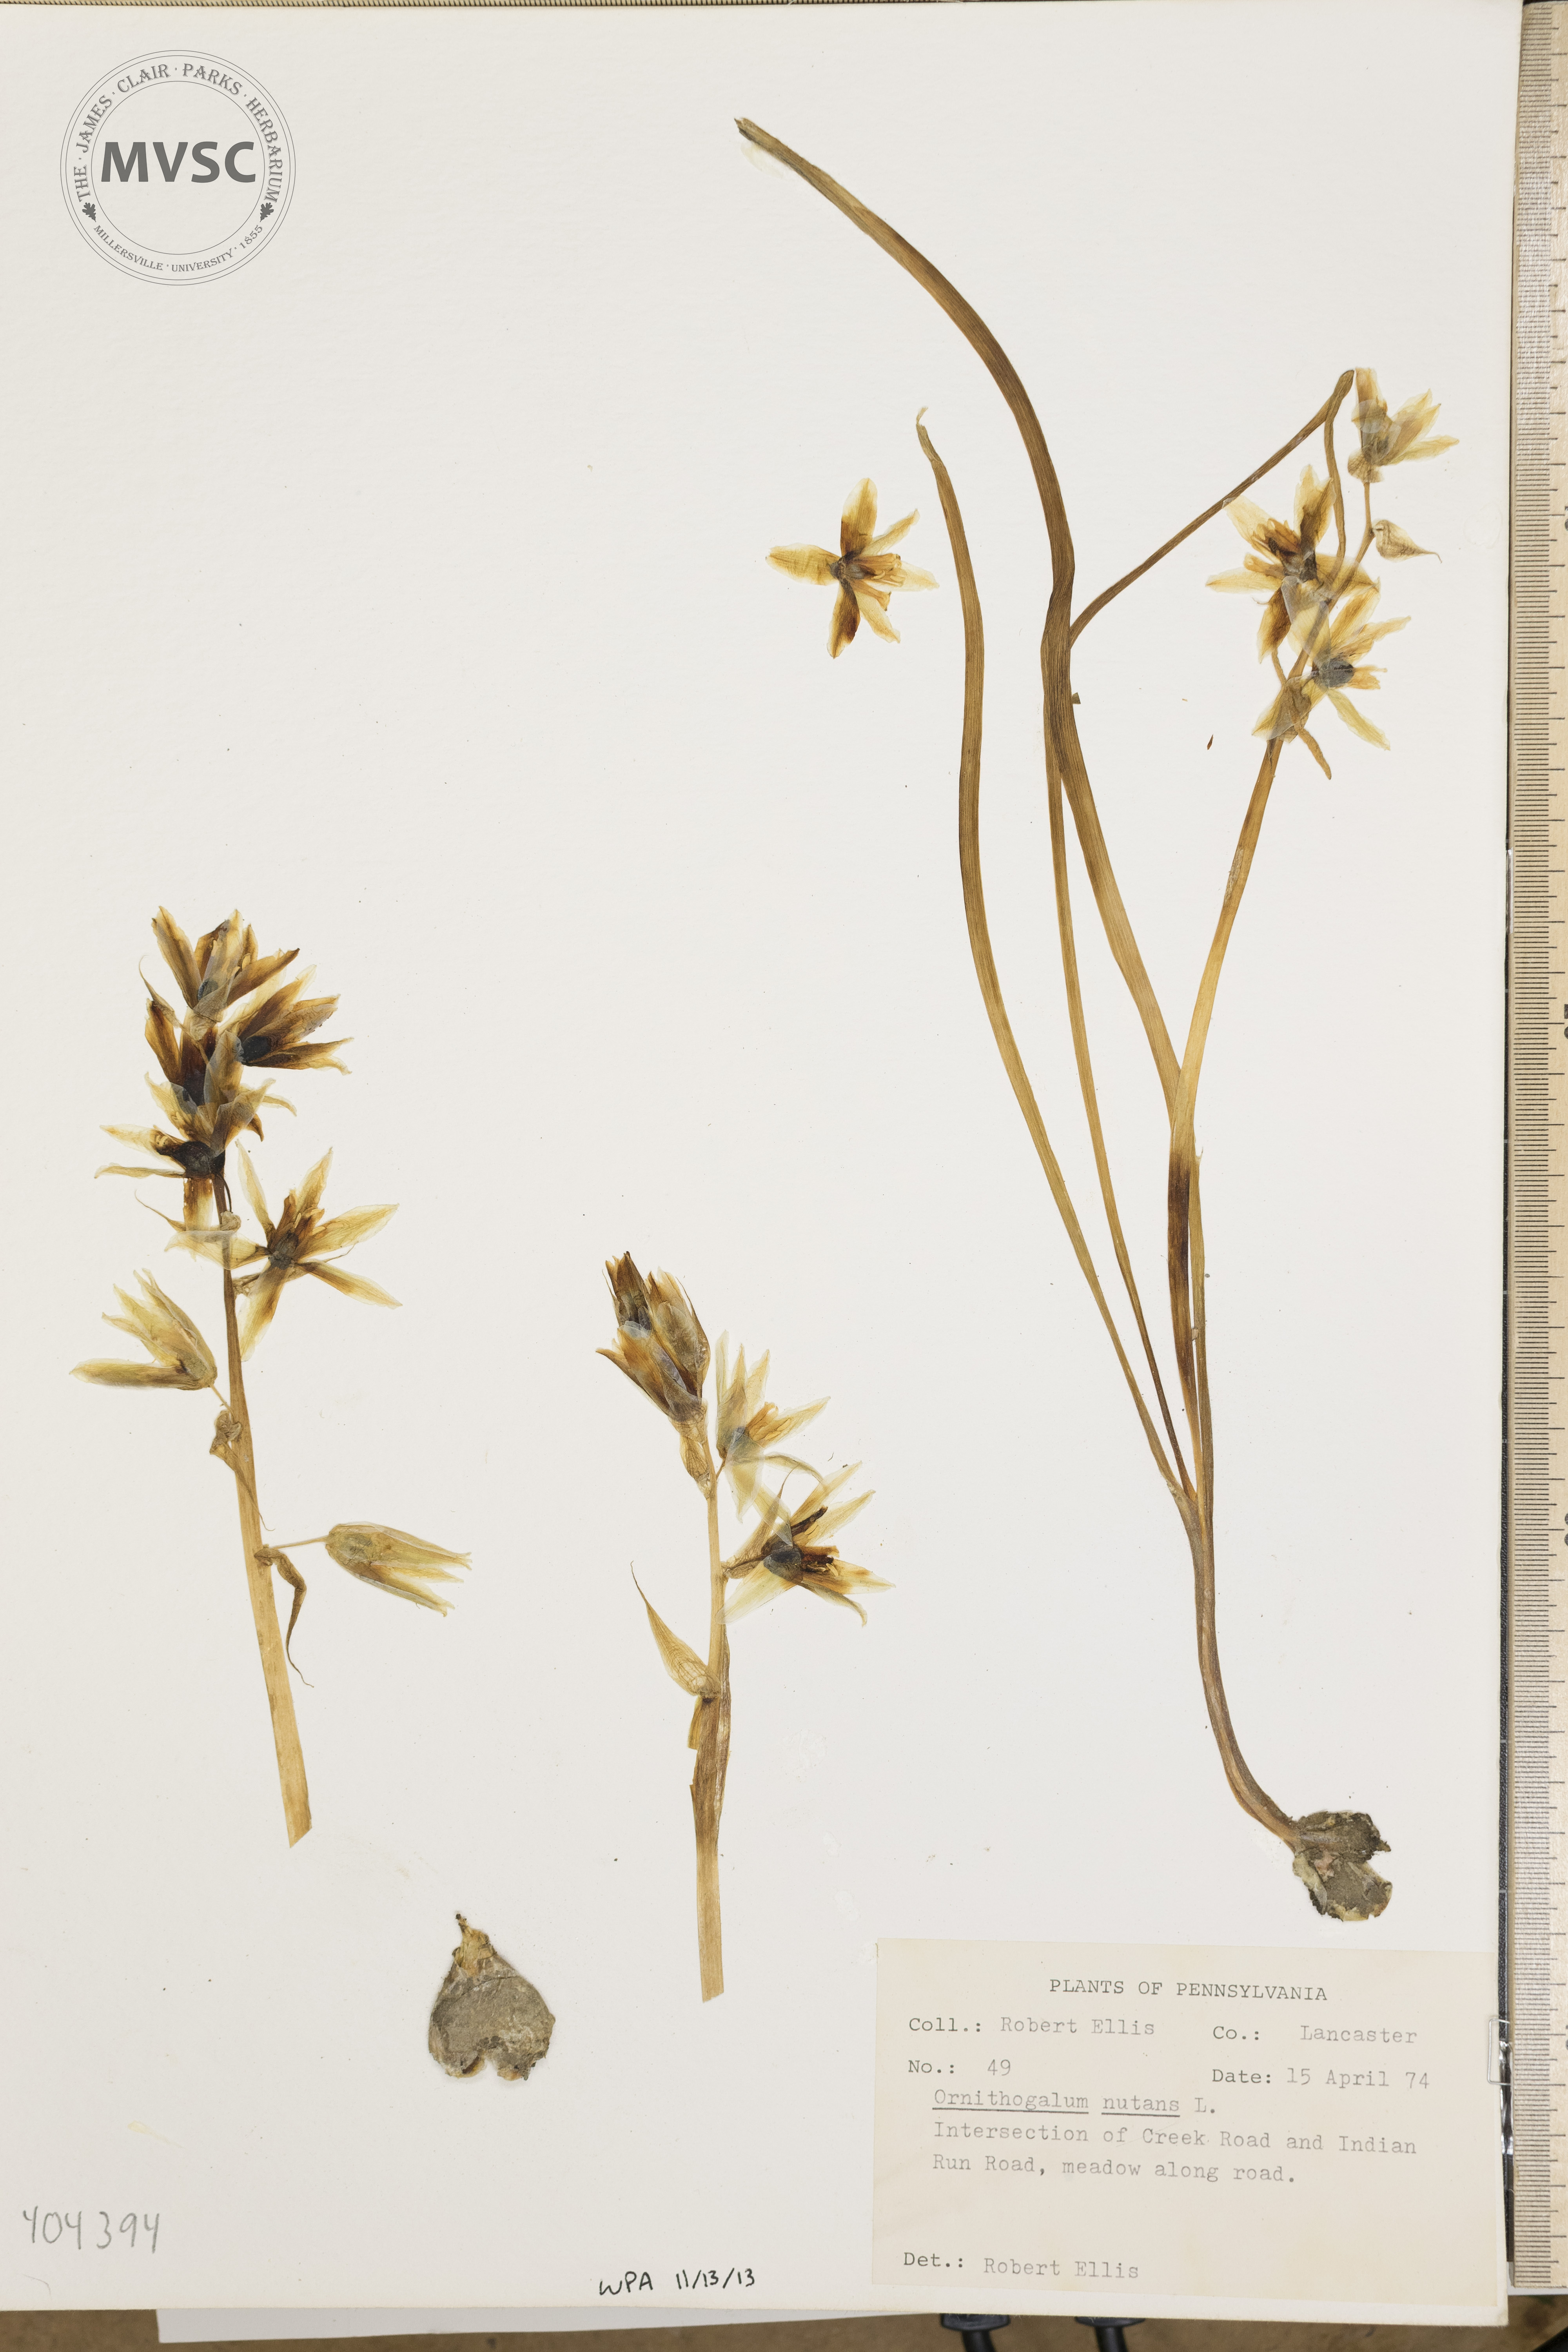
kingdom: Plantae
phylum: Tracheophyta
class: Liliopsida
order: Asparagales
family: Asparagaceae
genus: Ornithogalum
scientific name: Ornithogalum nutans
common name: Drooping star-of-bethlehem
